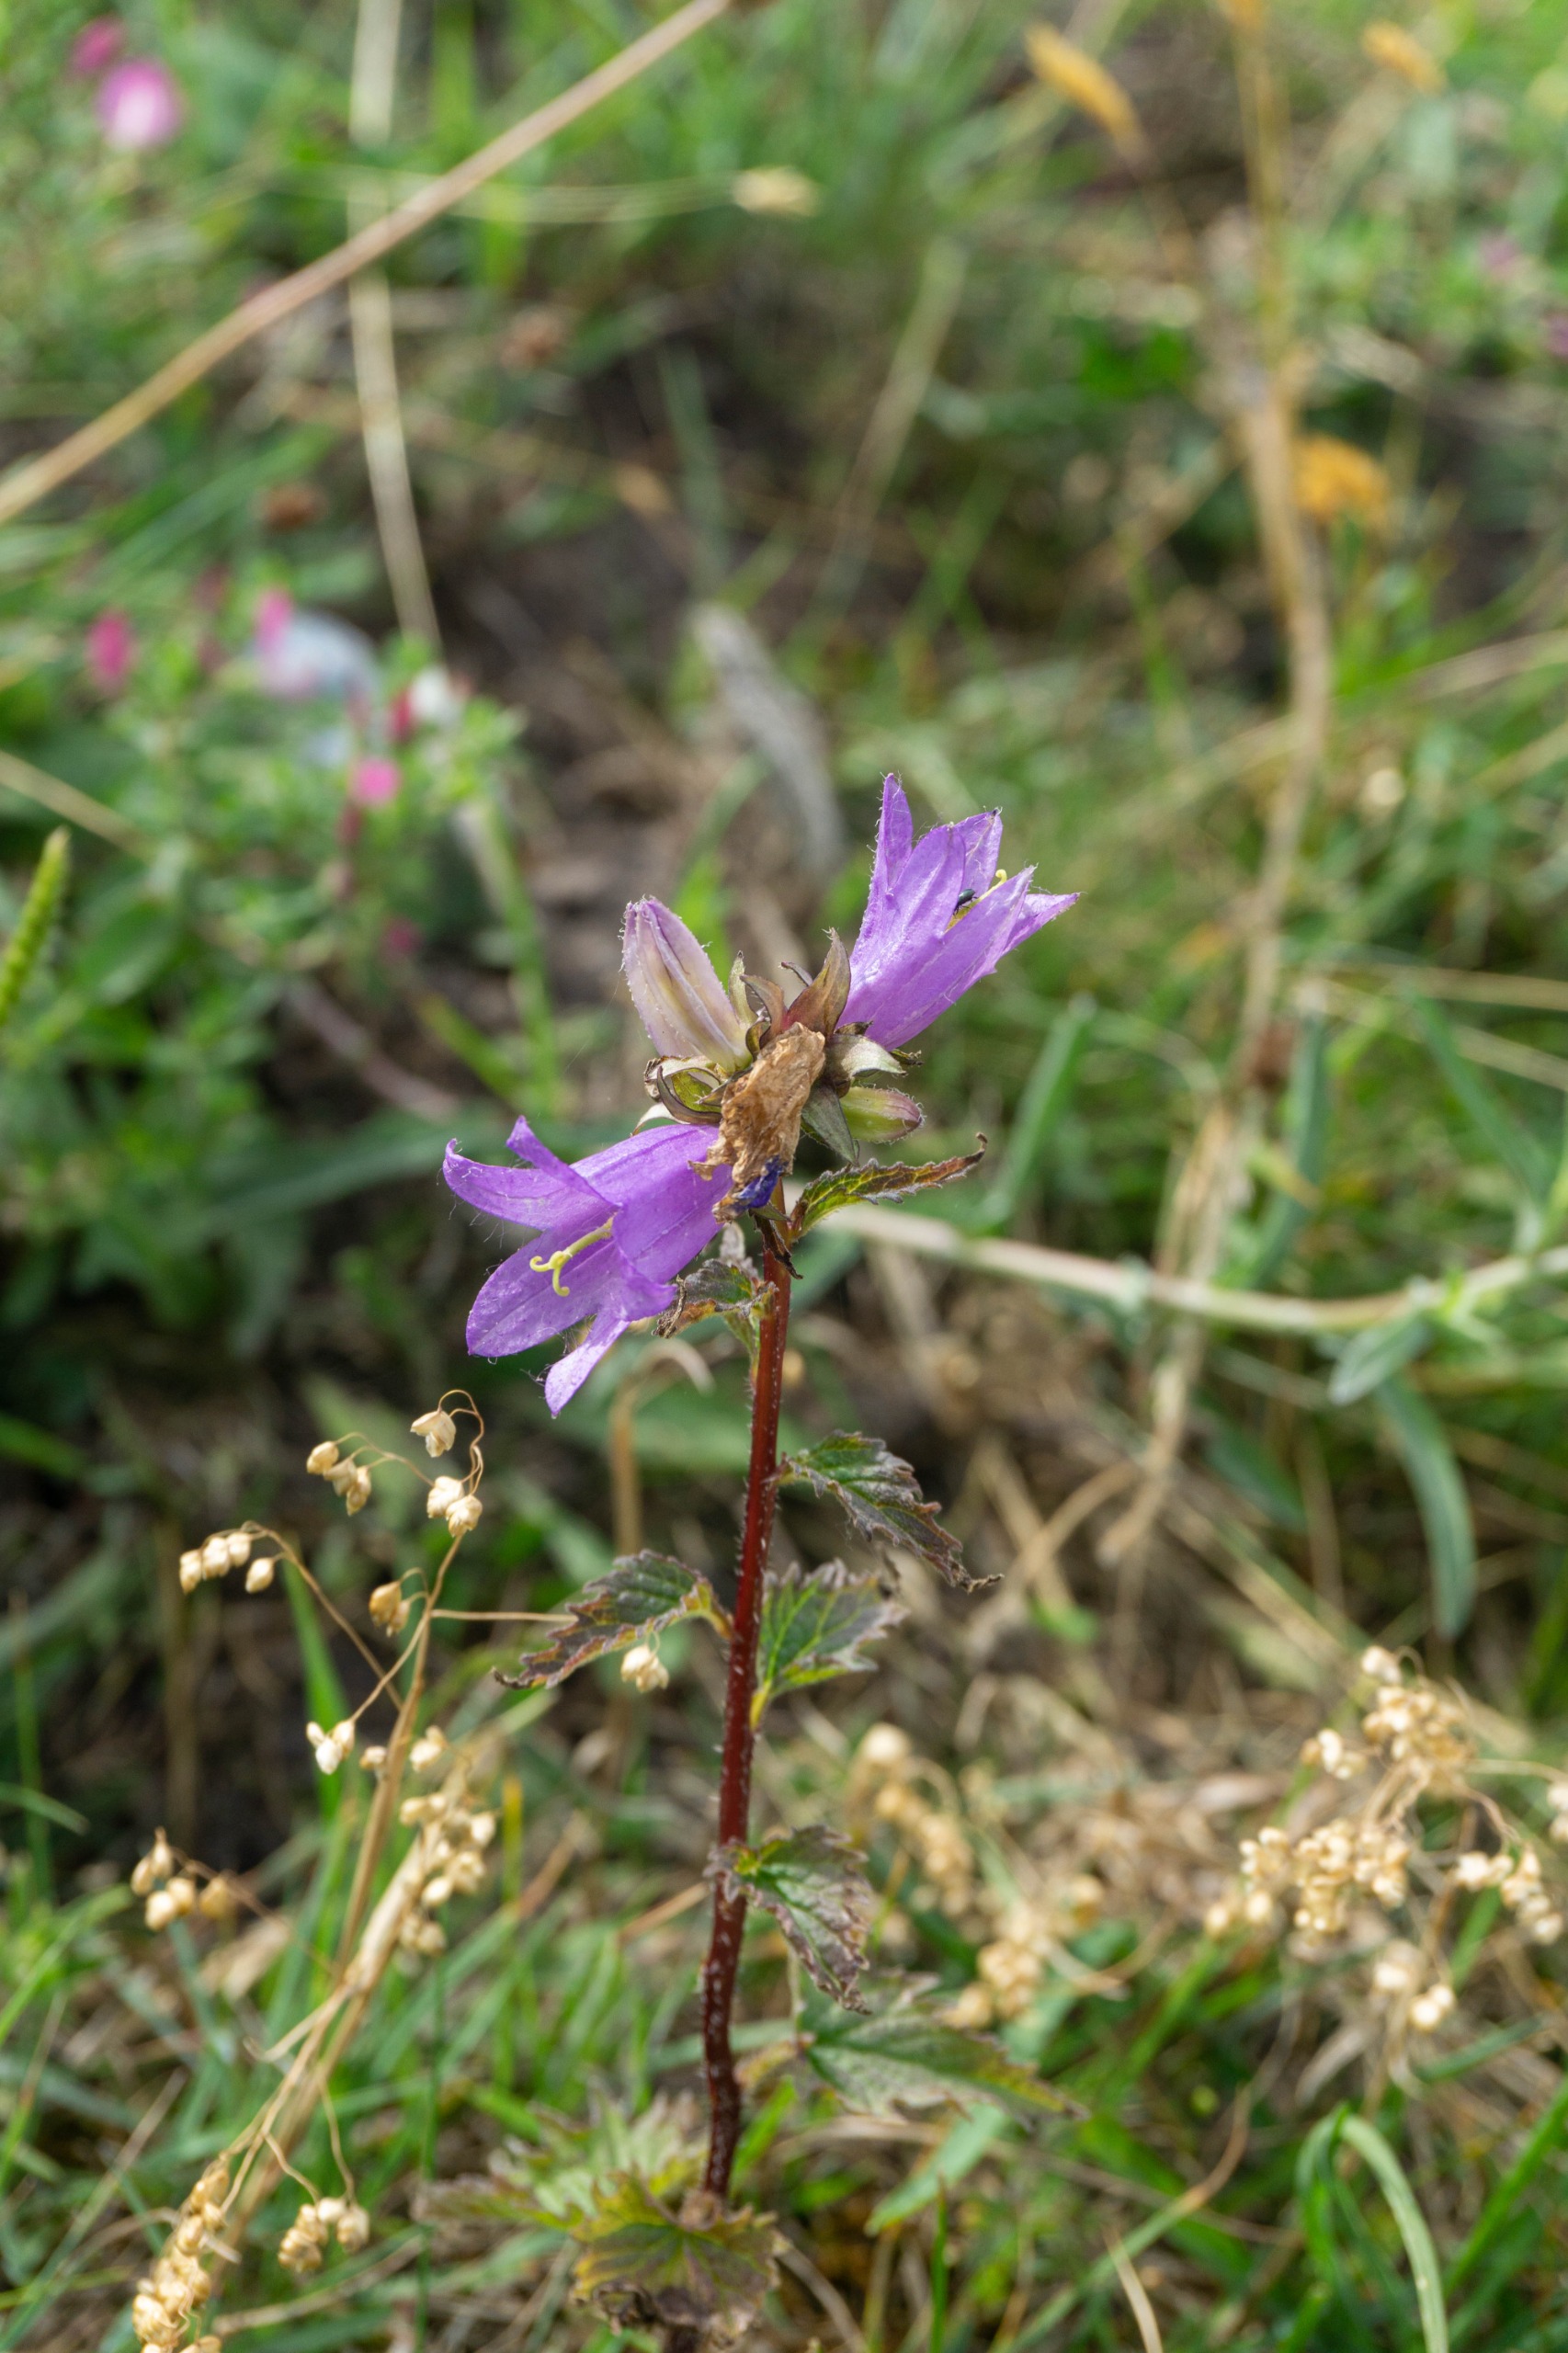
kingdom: Plantae
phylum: Tracheophyta
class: Magnoliopsida
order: Asterales
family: Campanulaceae
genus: Campanula
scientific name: Campanula trachelium
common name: Nælde-klokke
